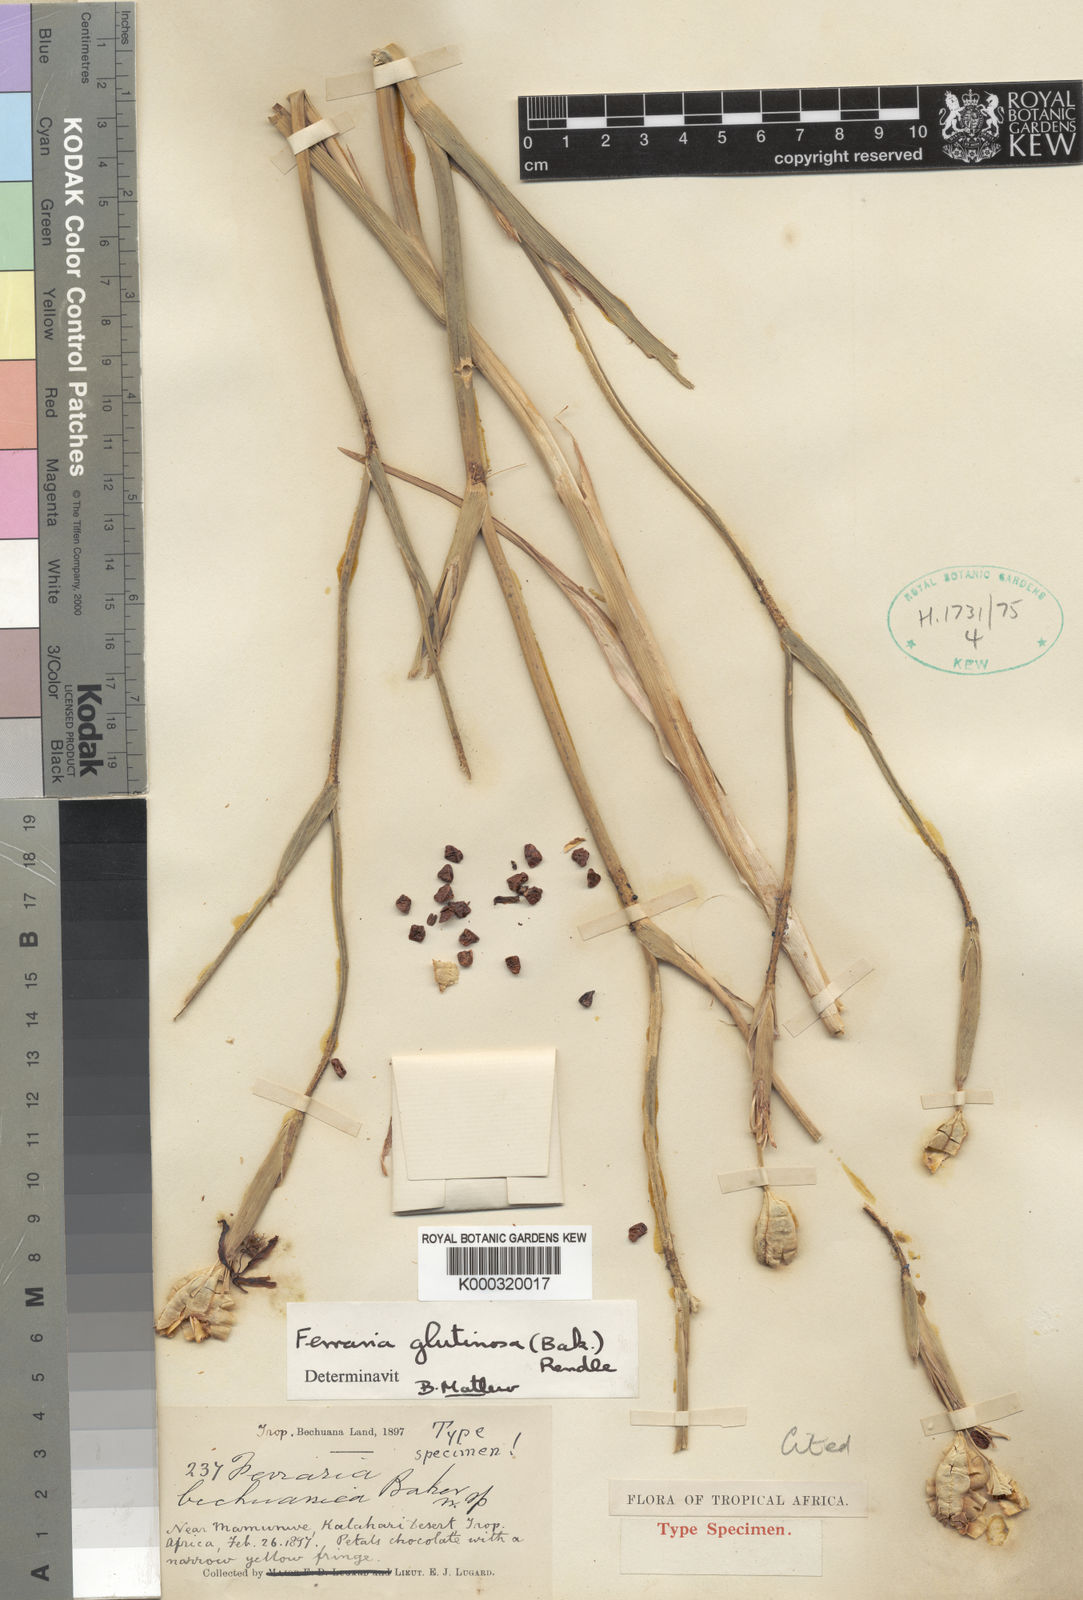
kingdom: Plantae
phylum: Tracheophyta
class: Liliopsida
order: Asparagales
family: Iridaceae
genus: Ferraria
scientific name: Ferraria glutinosa
